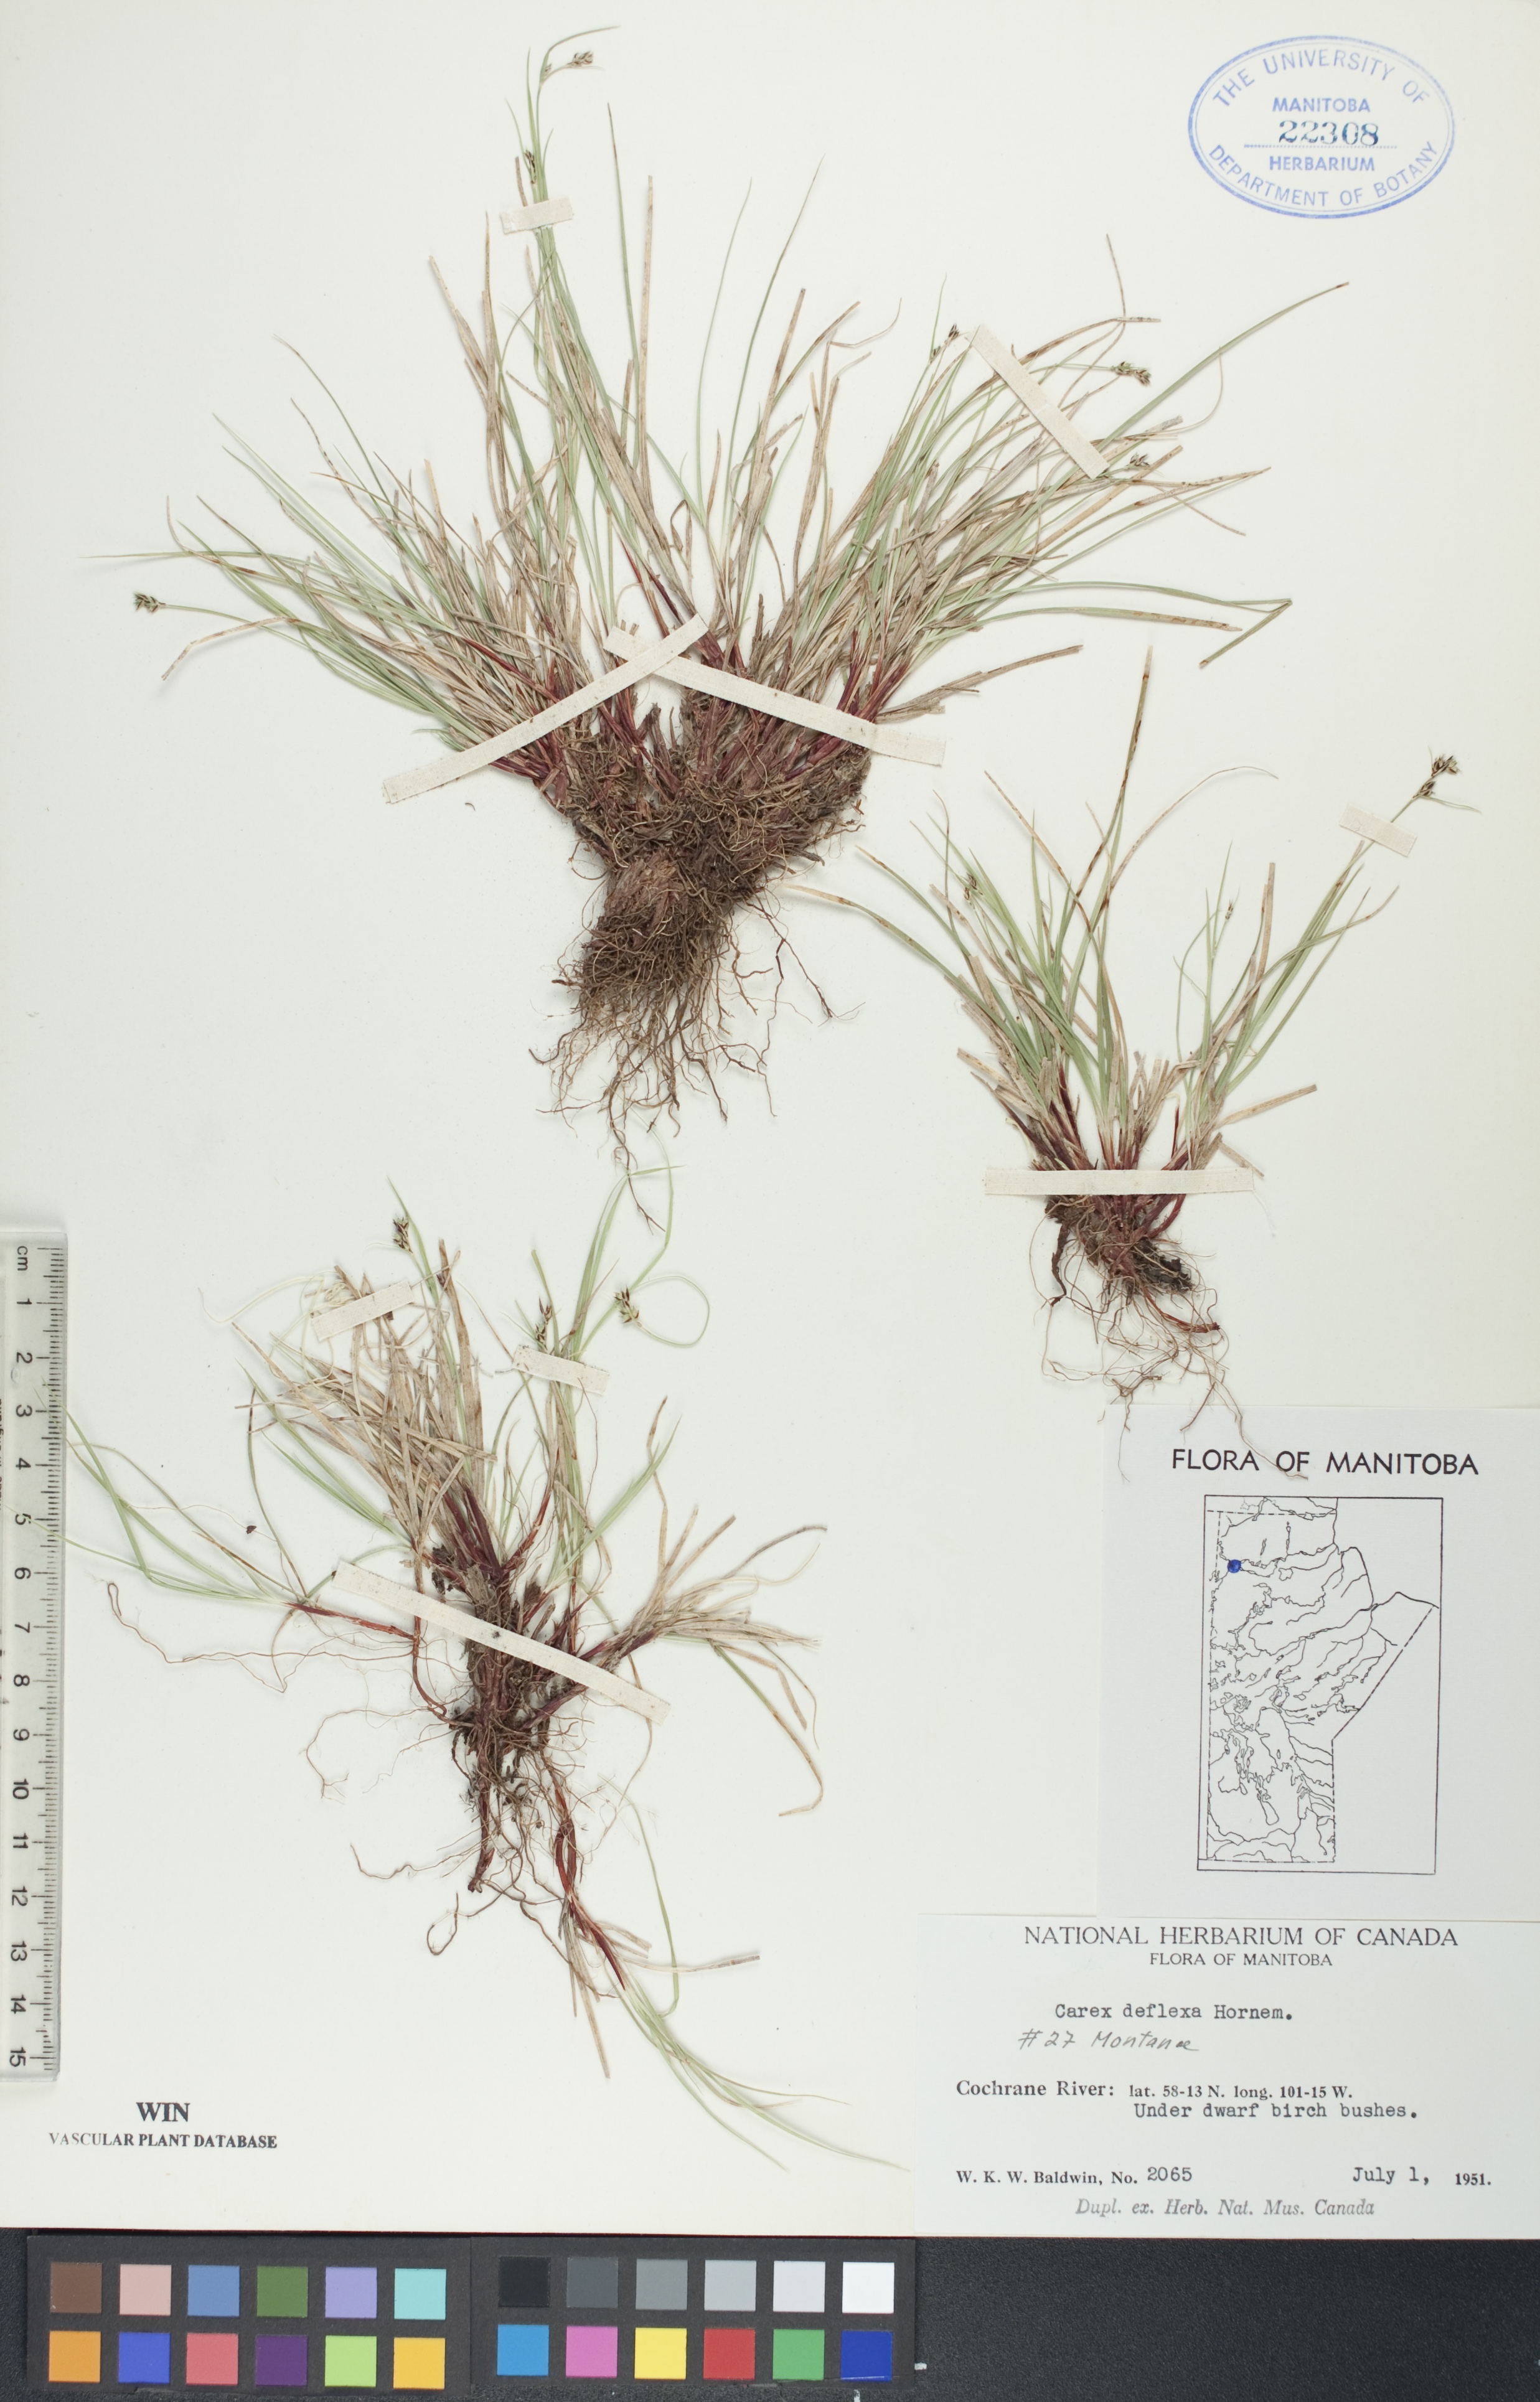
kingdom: Plantae
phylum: Tracheophyta
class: Liliopsida
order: Poales
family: Cyperaceae
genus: Carex
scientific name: Carex deflexa
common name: Bent northern sedge
